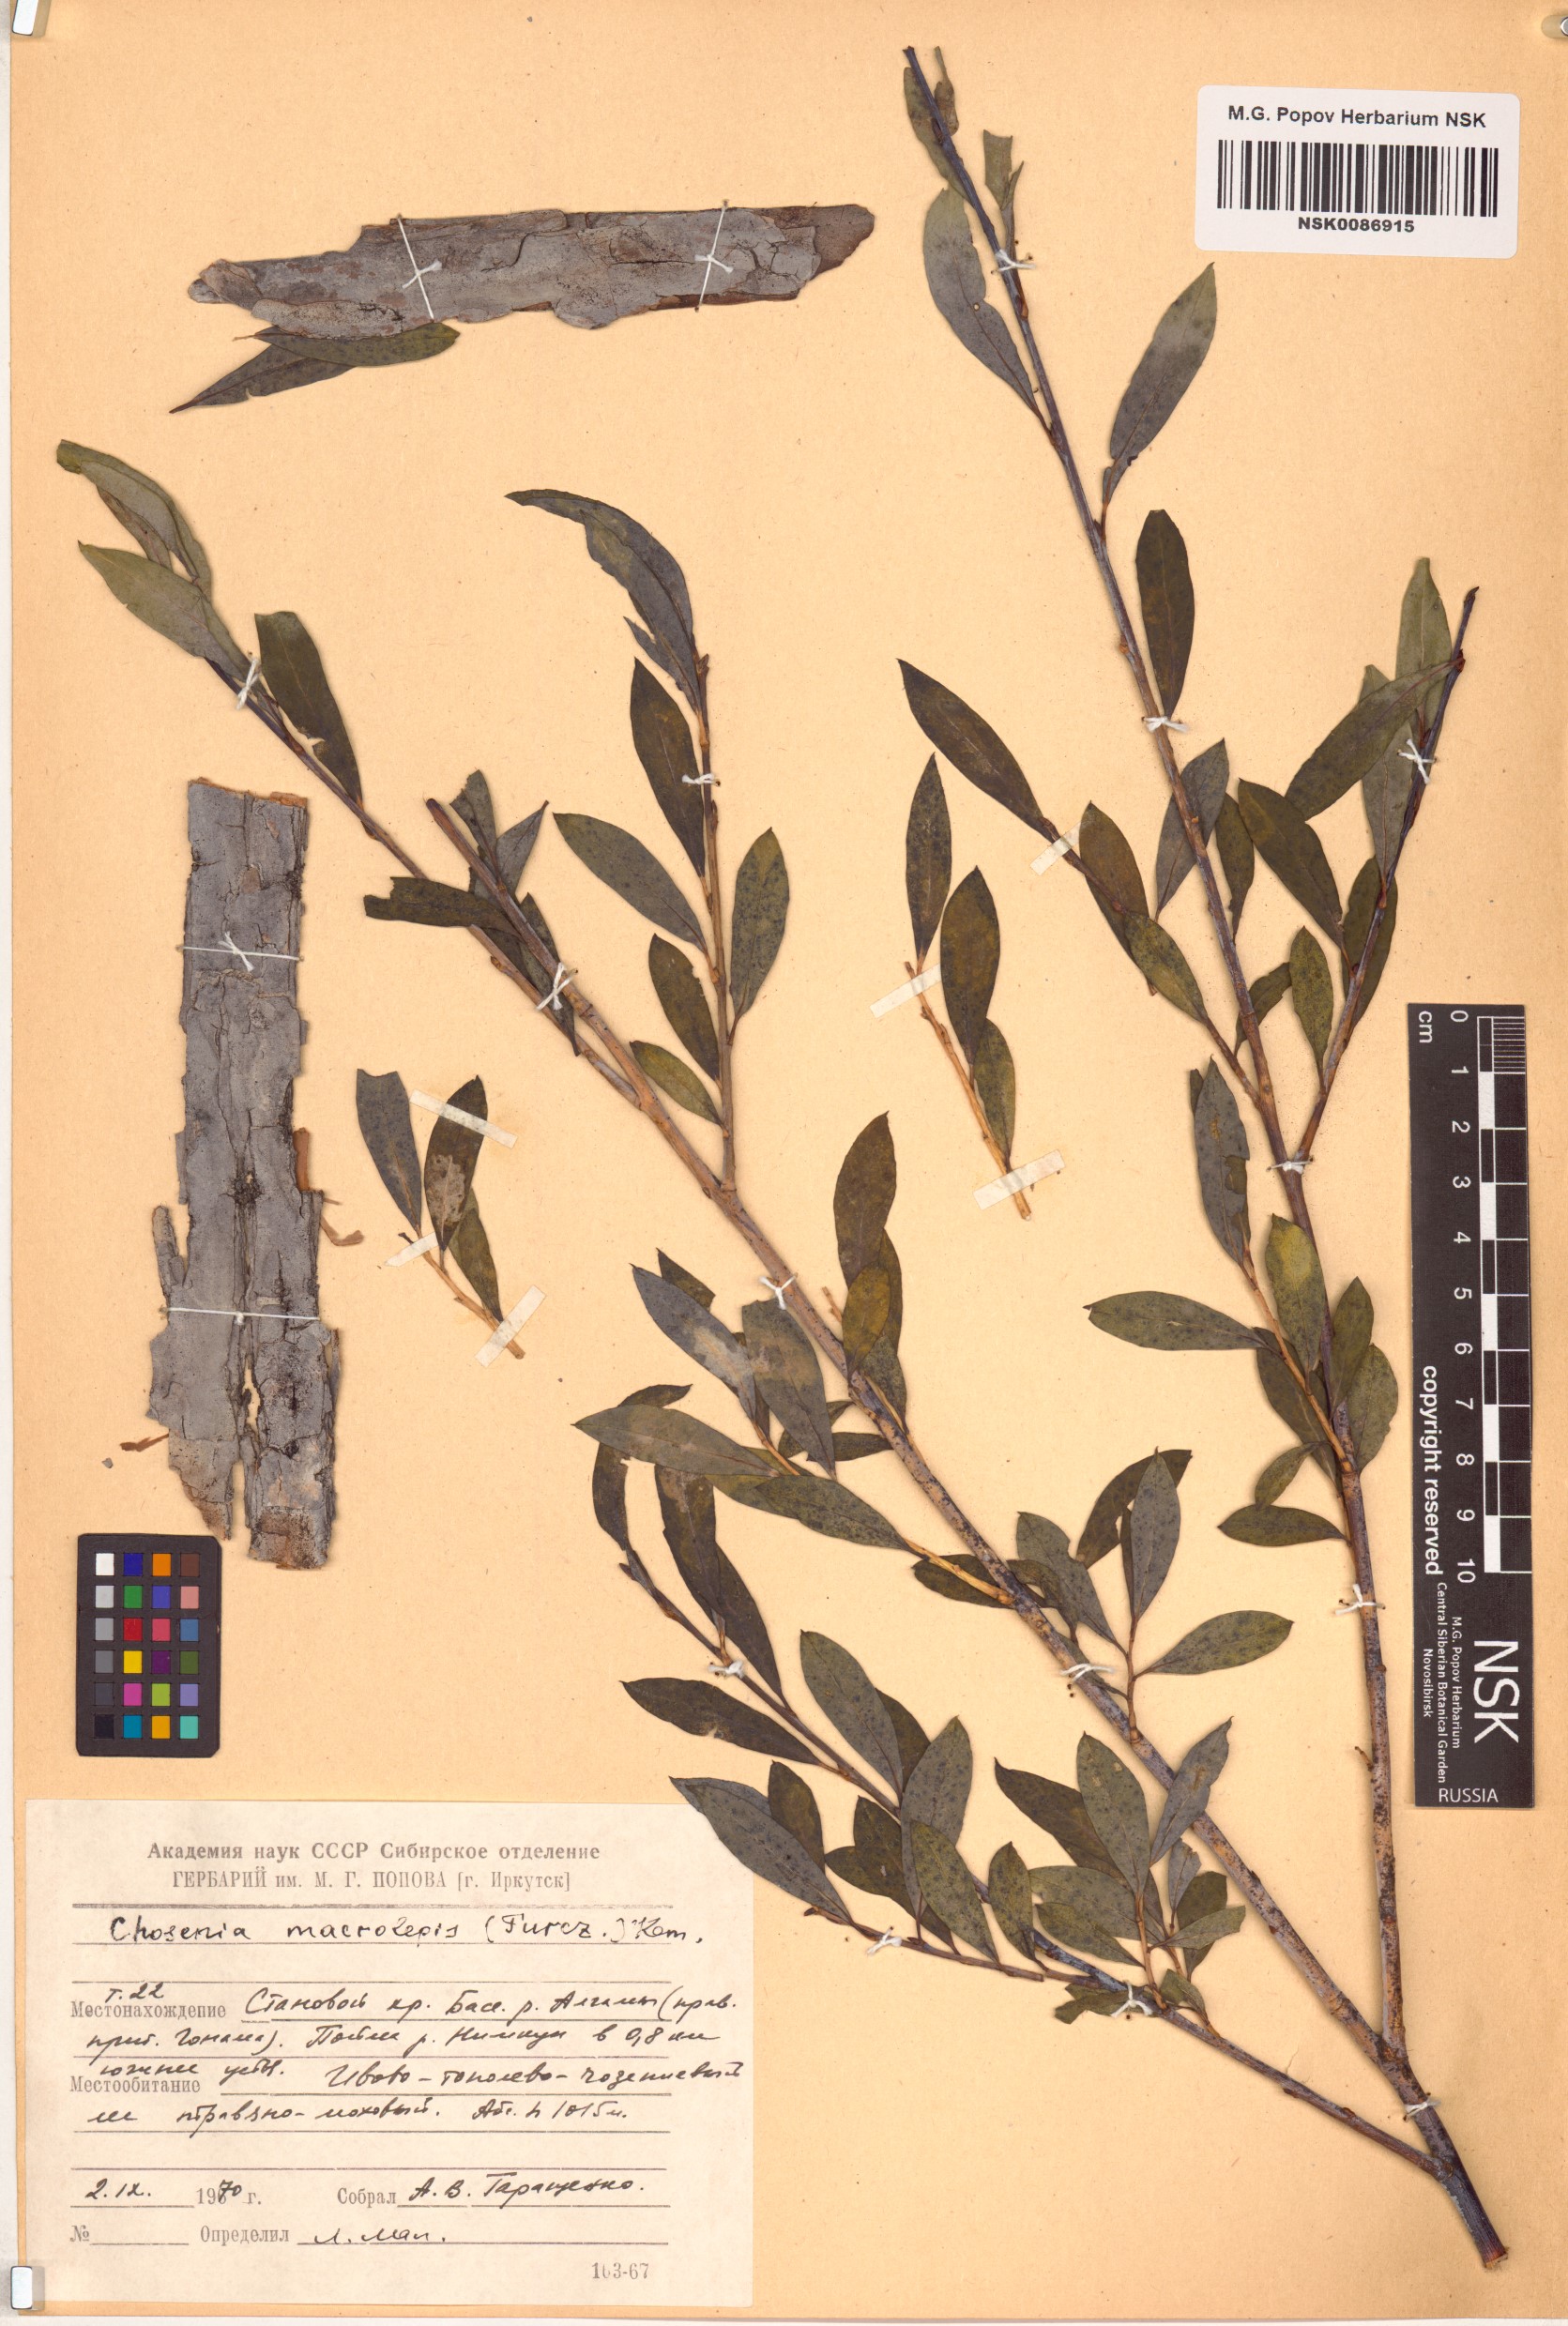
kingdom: Plantae
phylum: Tracheophyta
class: Magnoliopsida
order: Malpighiales
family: Salicaceae
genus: Chosenia
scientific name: Chosenia arbutifolia
